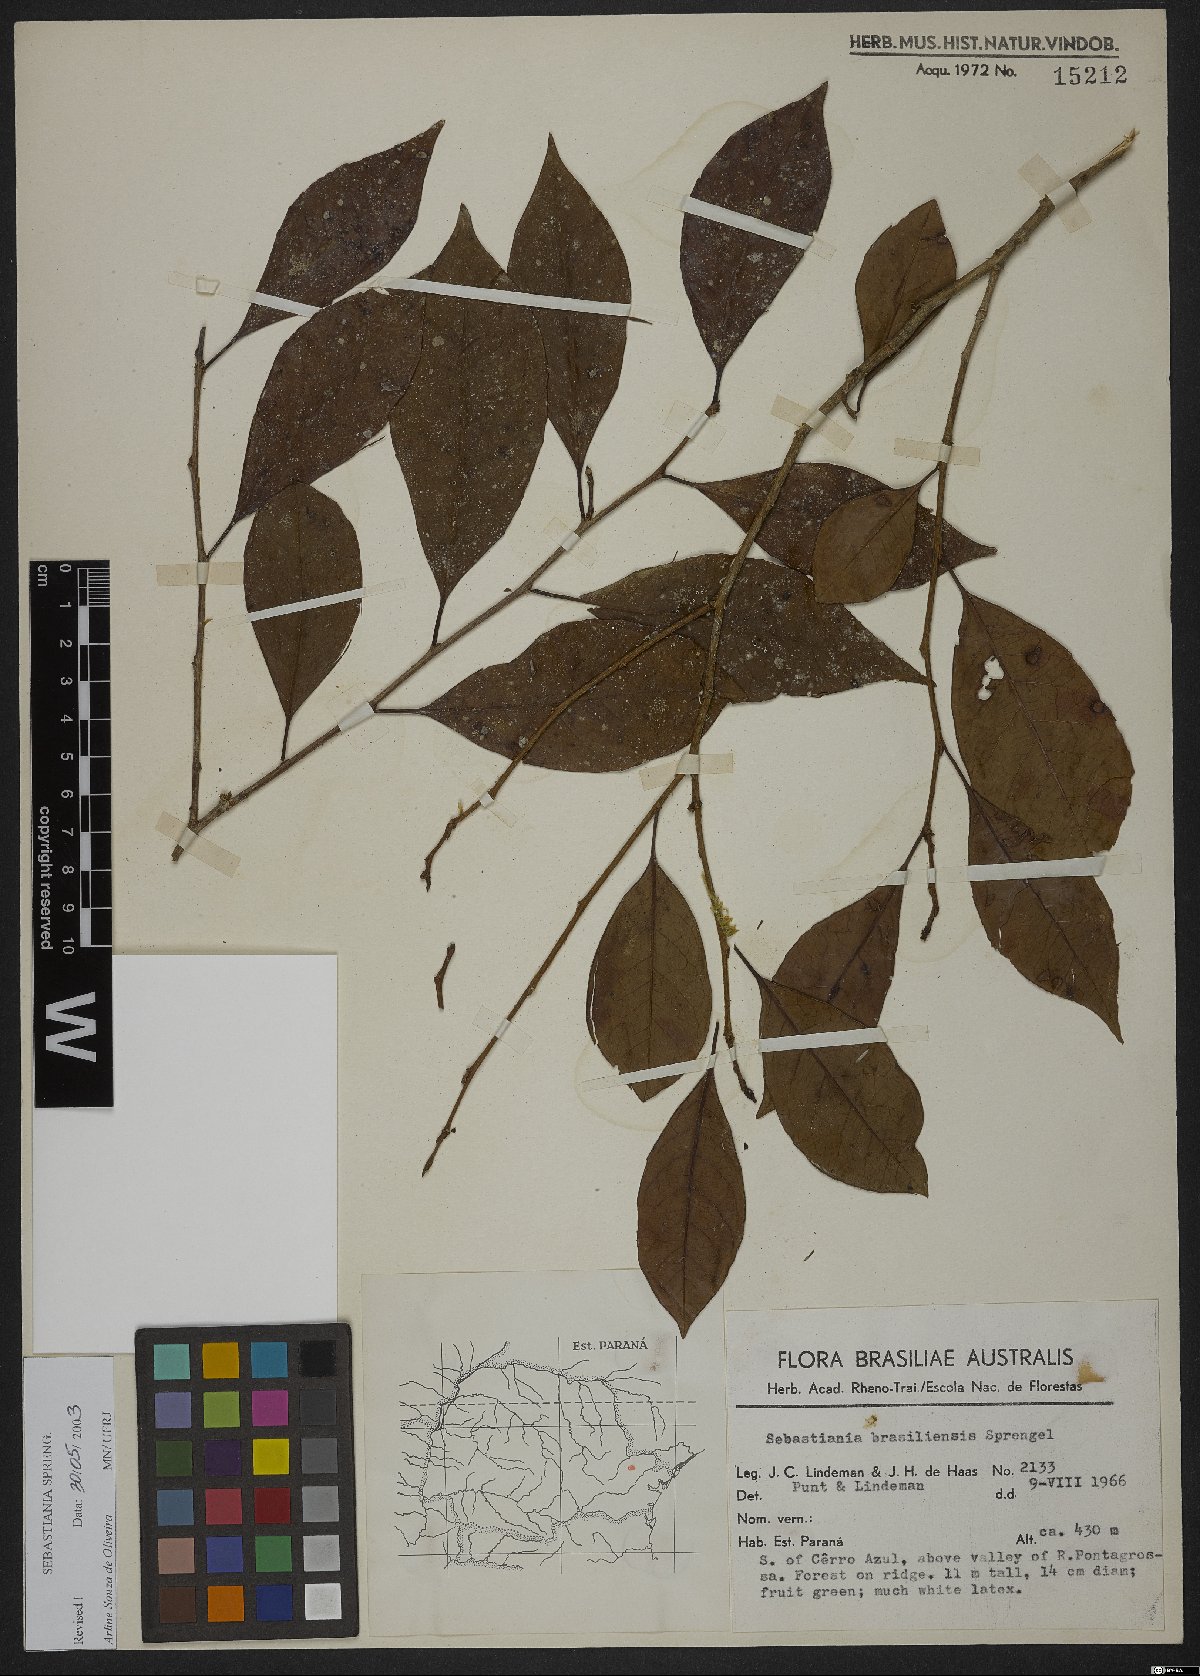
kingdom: Plantae
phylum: Tracheophyta
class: Magnoliopsida
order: Malpighiales
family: Euphorbiaceae
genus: Sebastiania
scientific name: Sebastiania ramosissima
